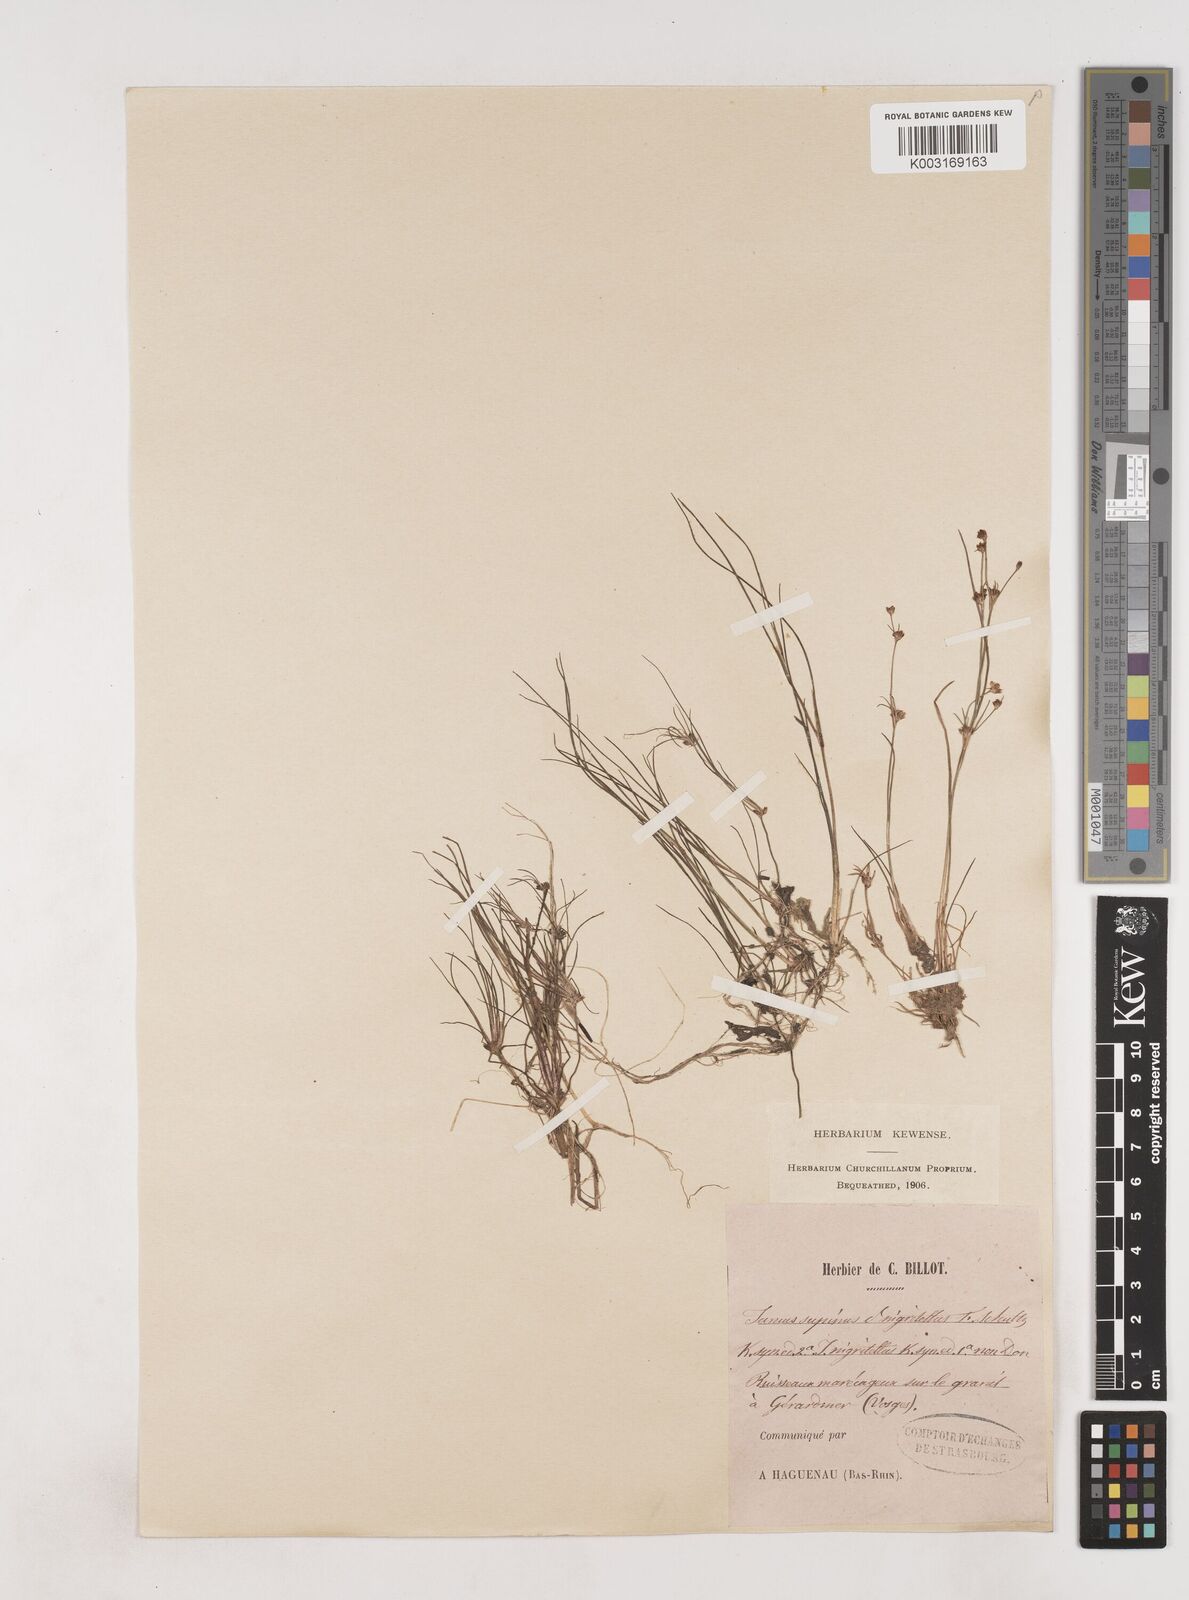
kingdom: Plantae
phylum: Tracheophyta
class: Liliopsida
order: Poales
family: Juncaceae
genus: Juncus
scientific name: Juncus bulbosus
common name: Bulbous rush
